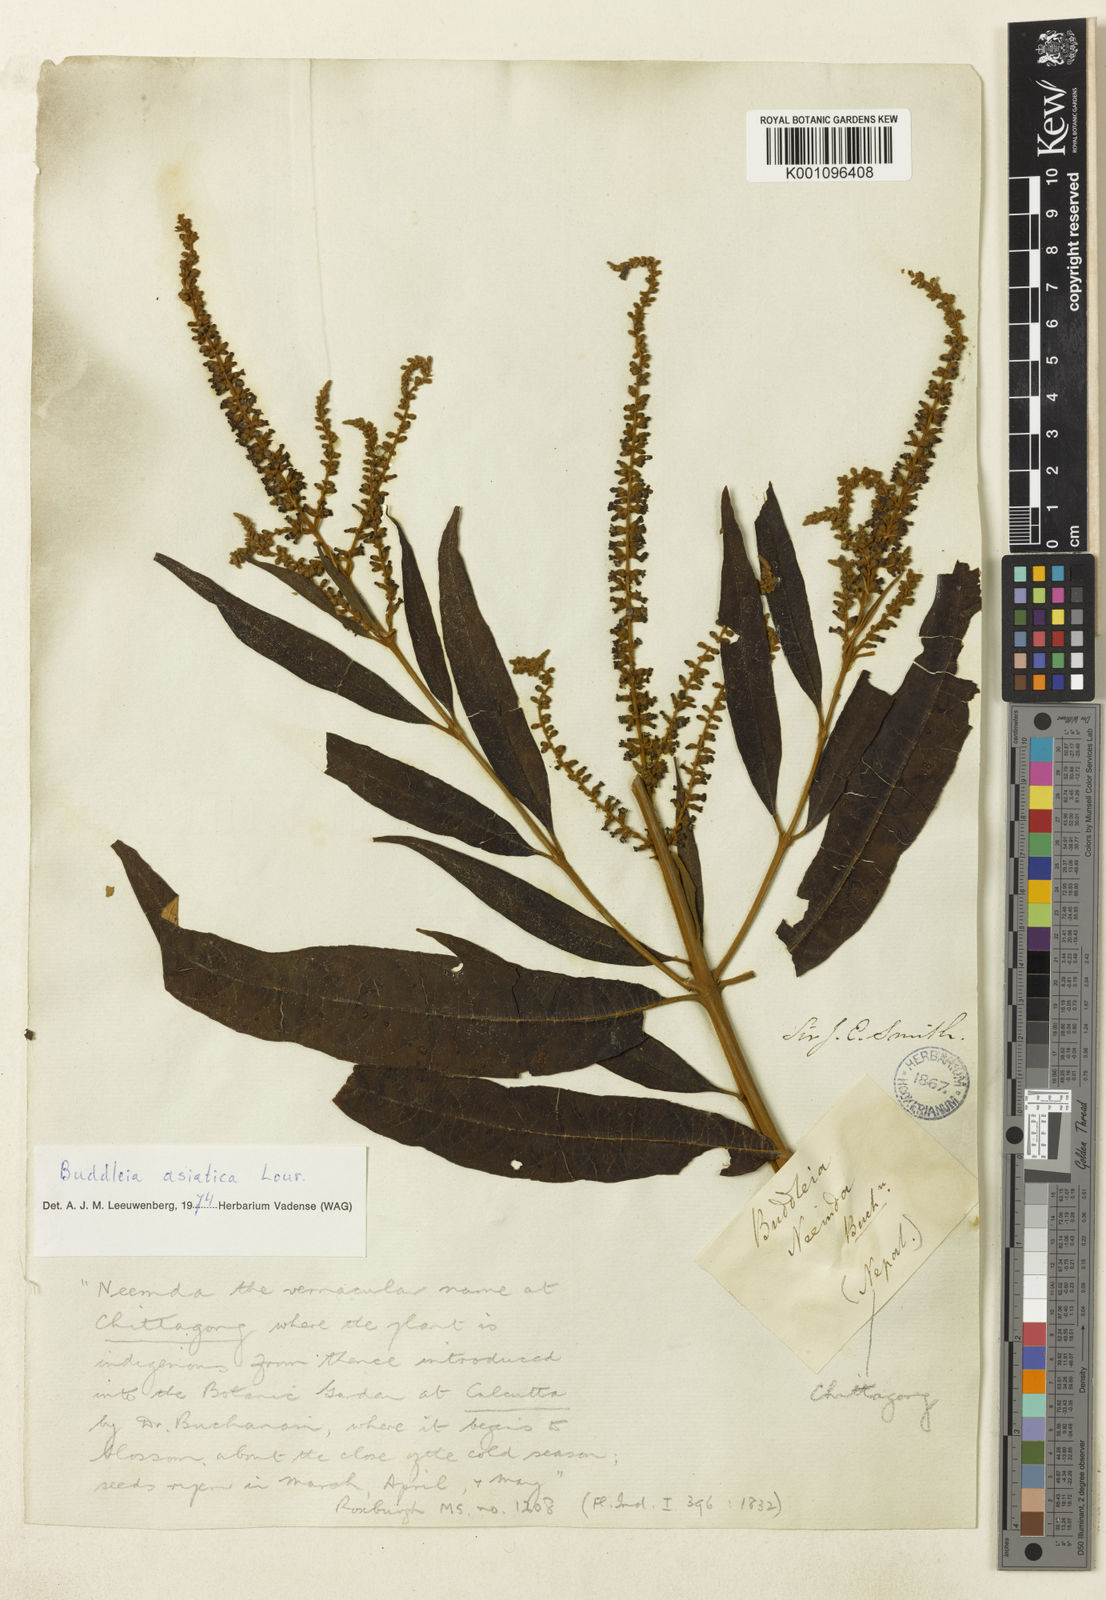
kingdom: Plantae
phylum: Tracheophyta
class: Magnoliopsida
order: Lamiales
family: Scrophulariaceae
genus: Buddleja
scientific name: Buddleja asiatica
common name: Dog tail
